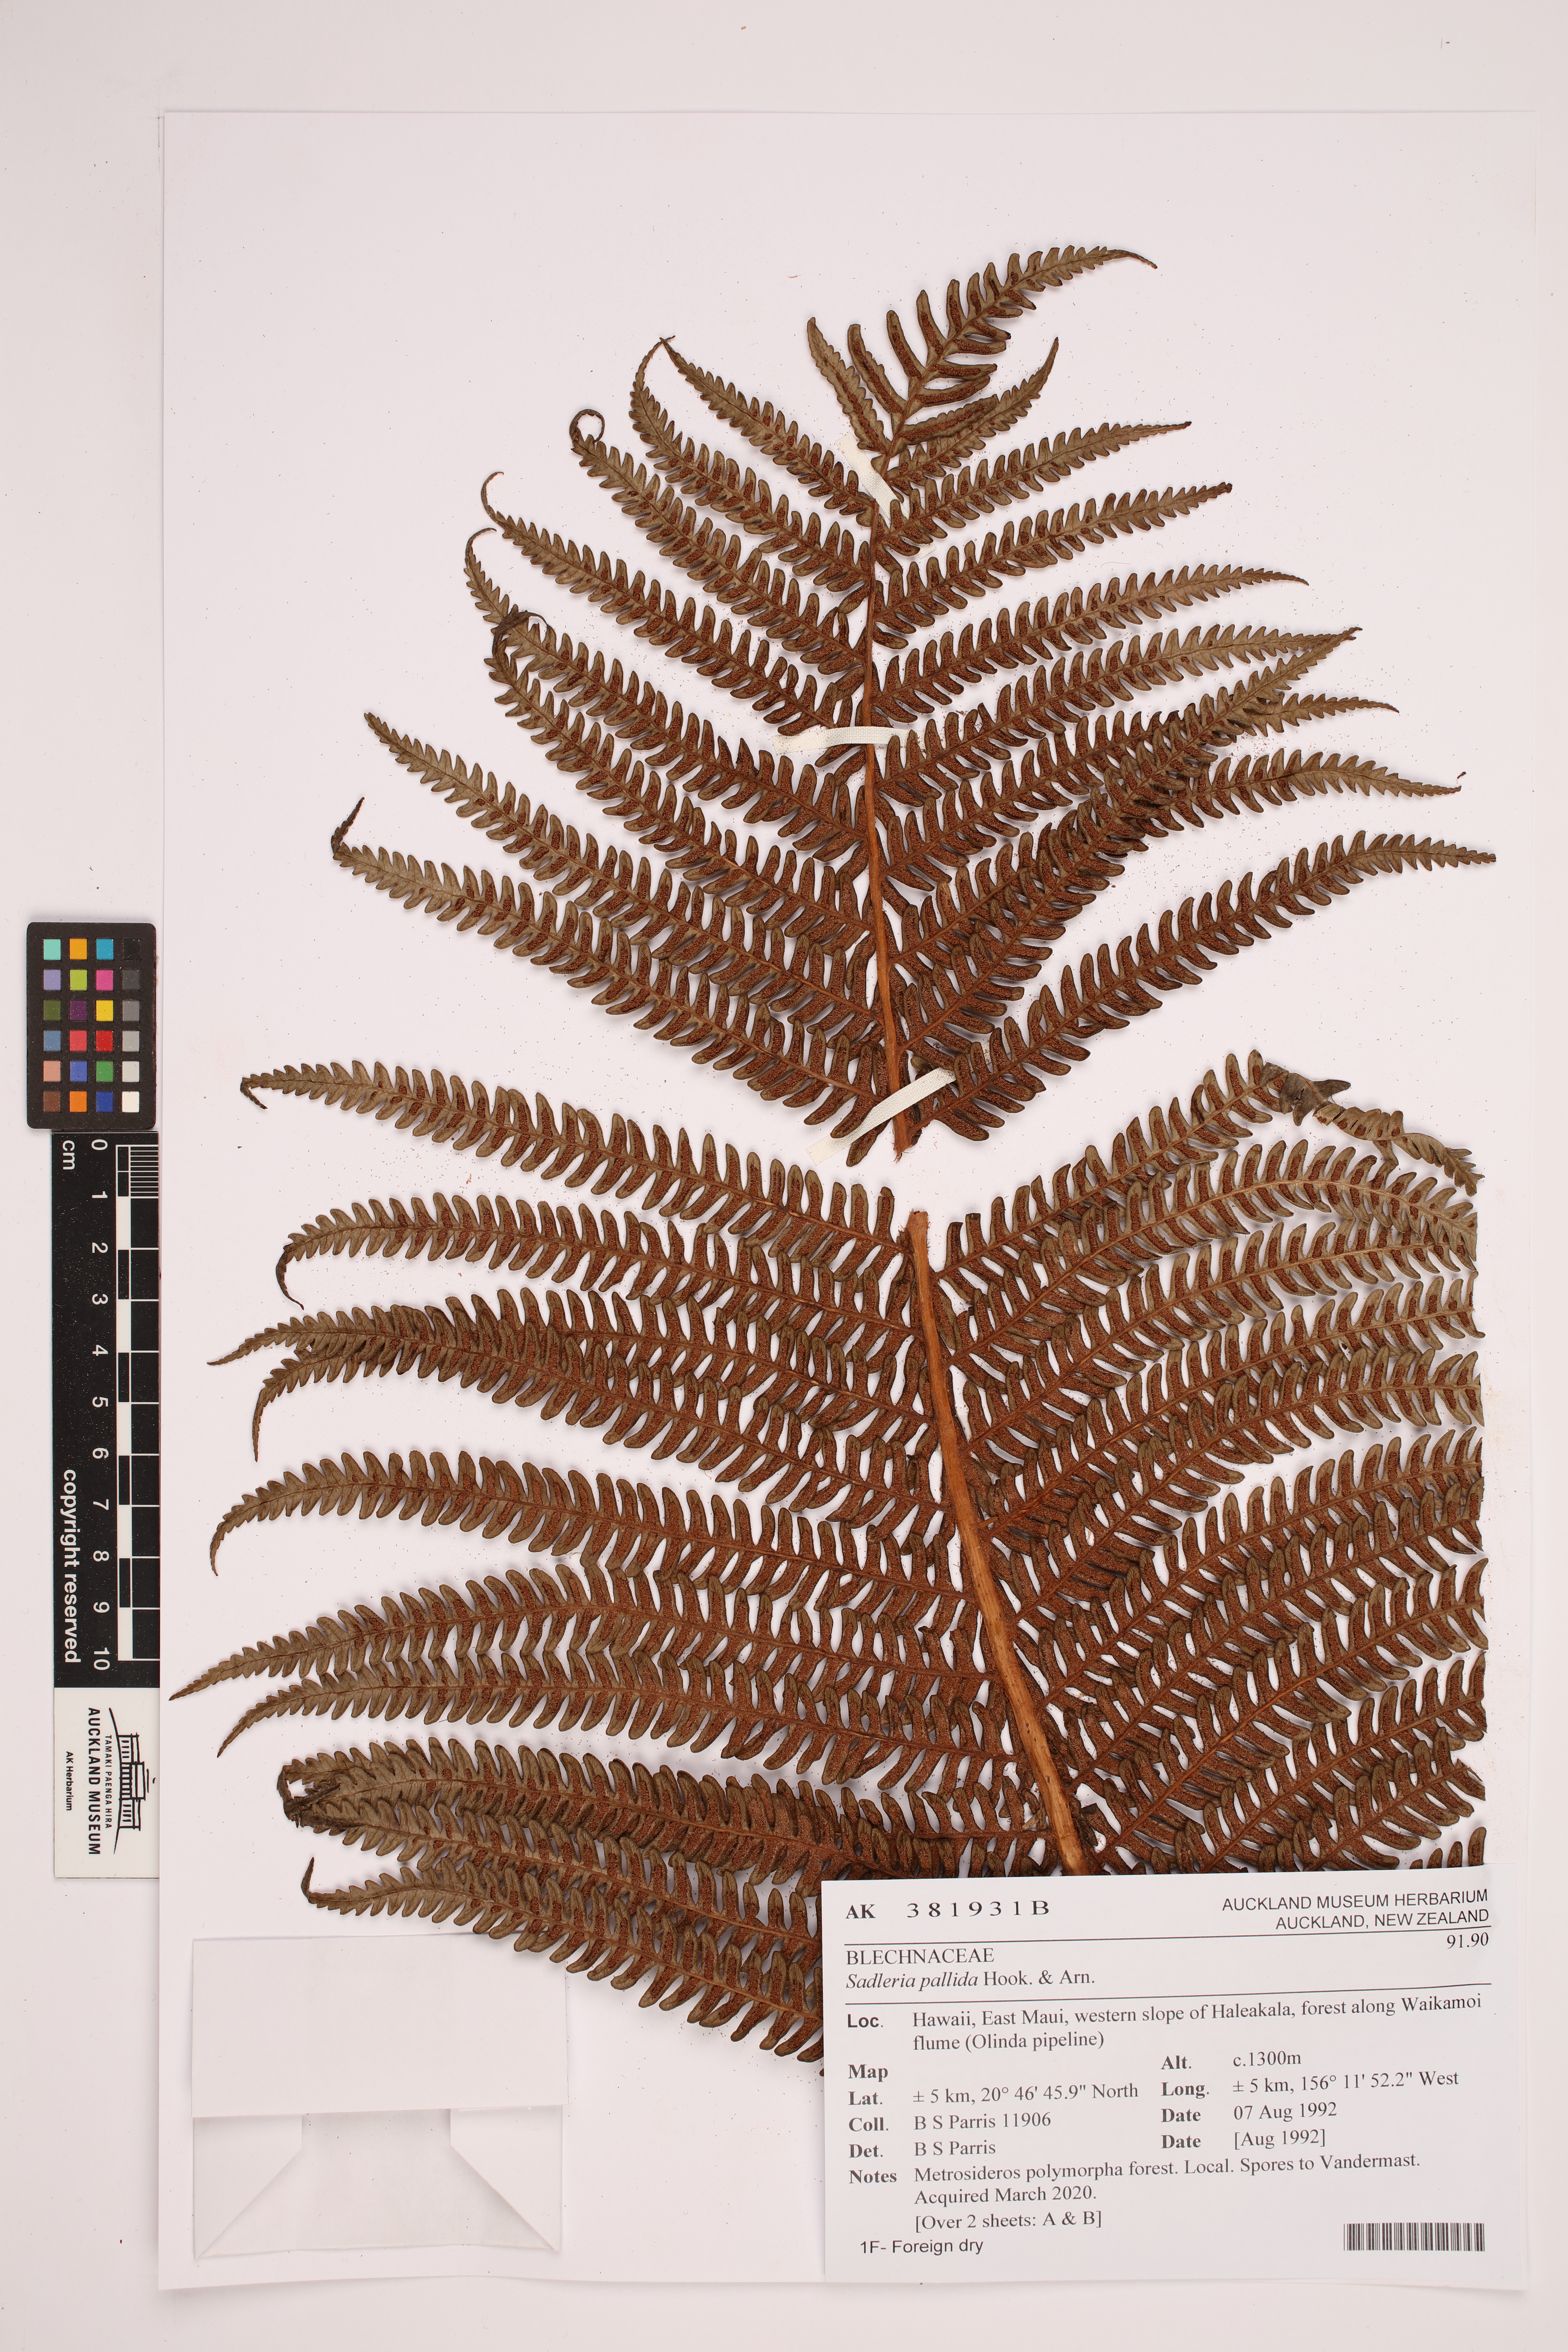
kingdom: Plantae
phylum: Tracheophyta
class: Polypodiopsida
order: Polypodiales
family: Blechnaceae
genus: Sadleria
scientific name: Sadleria pallida
